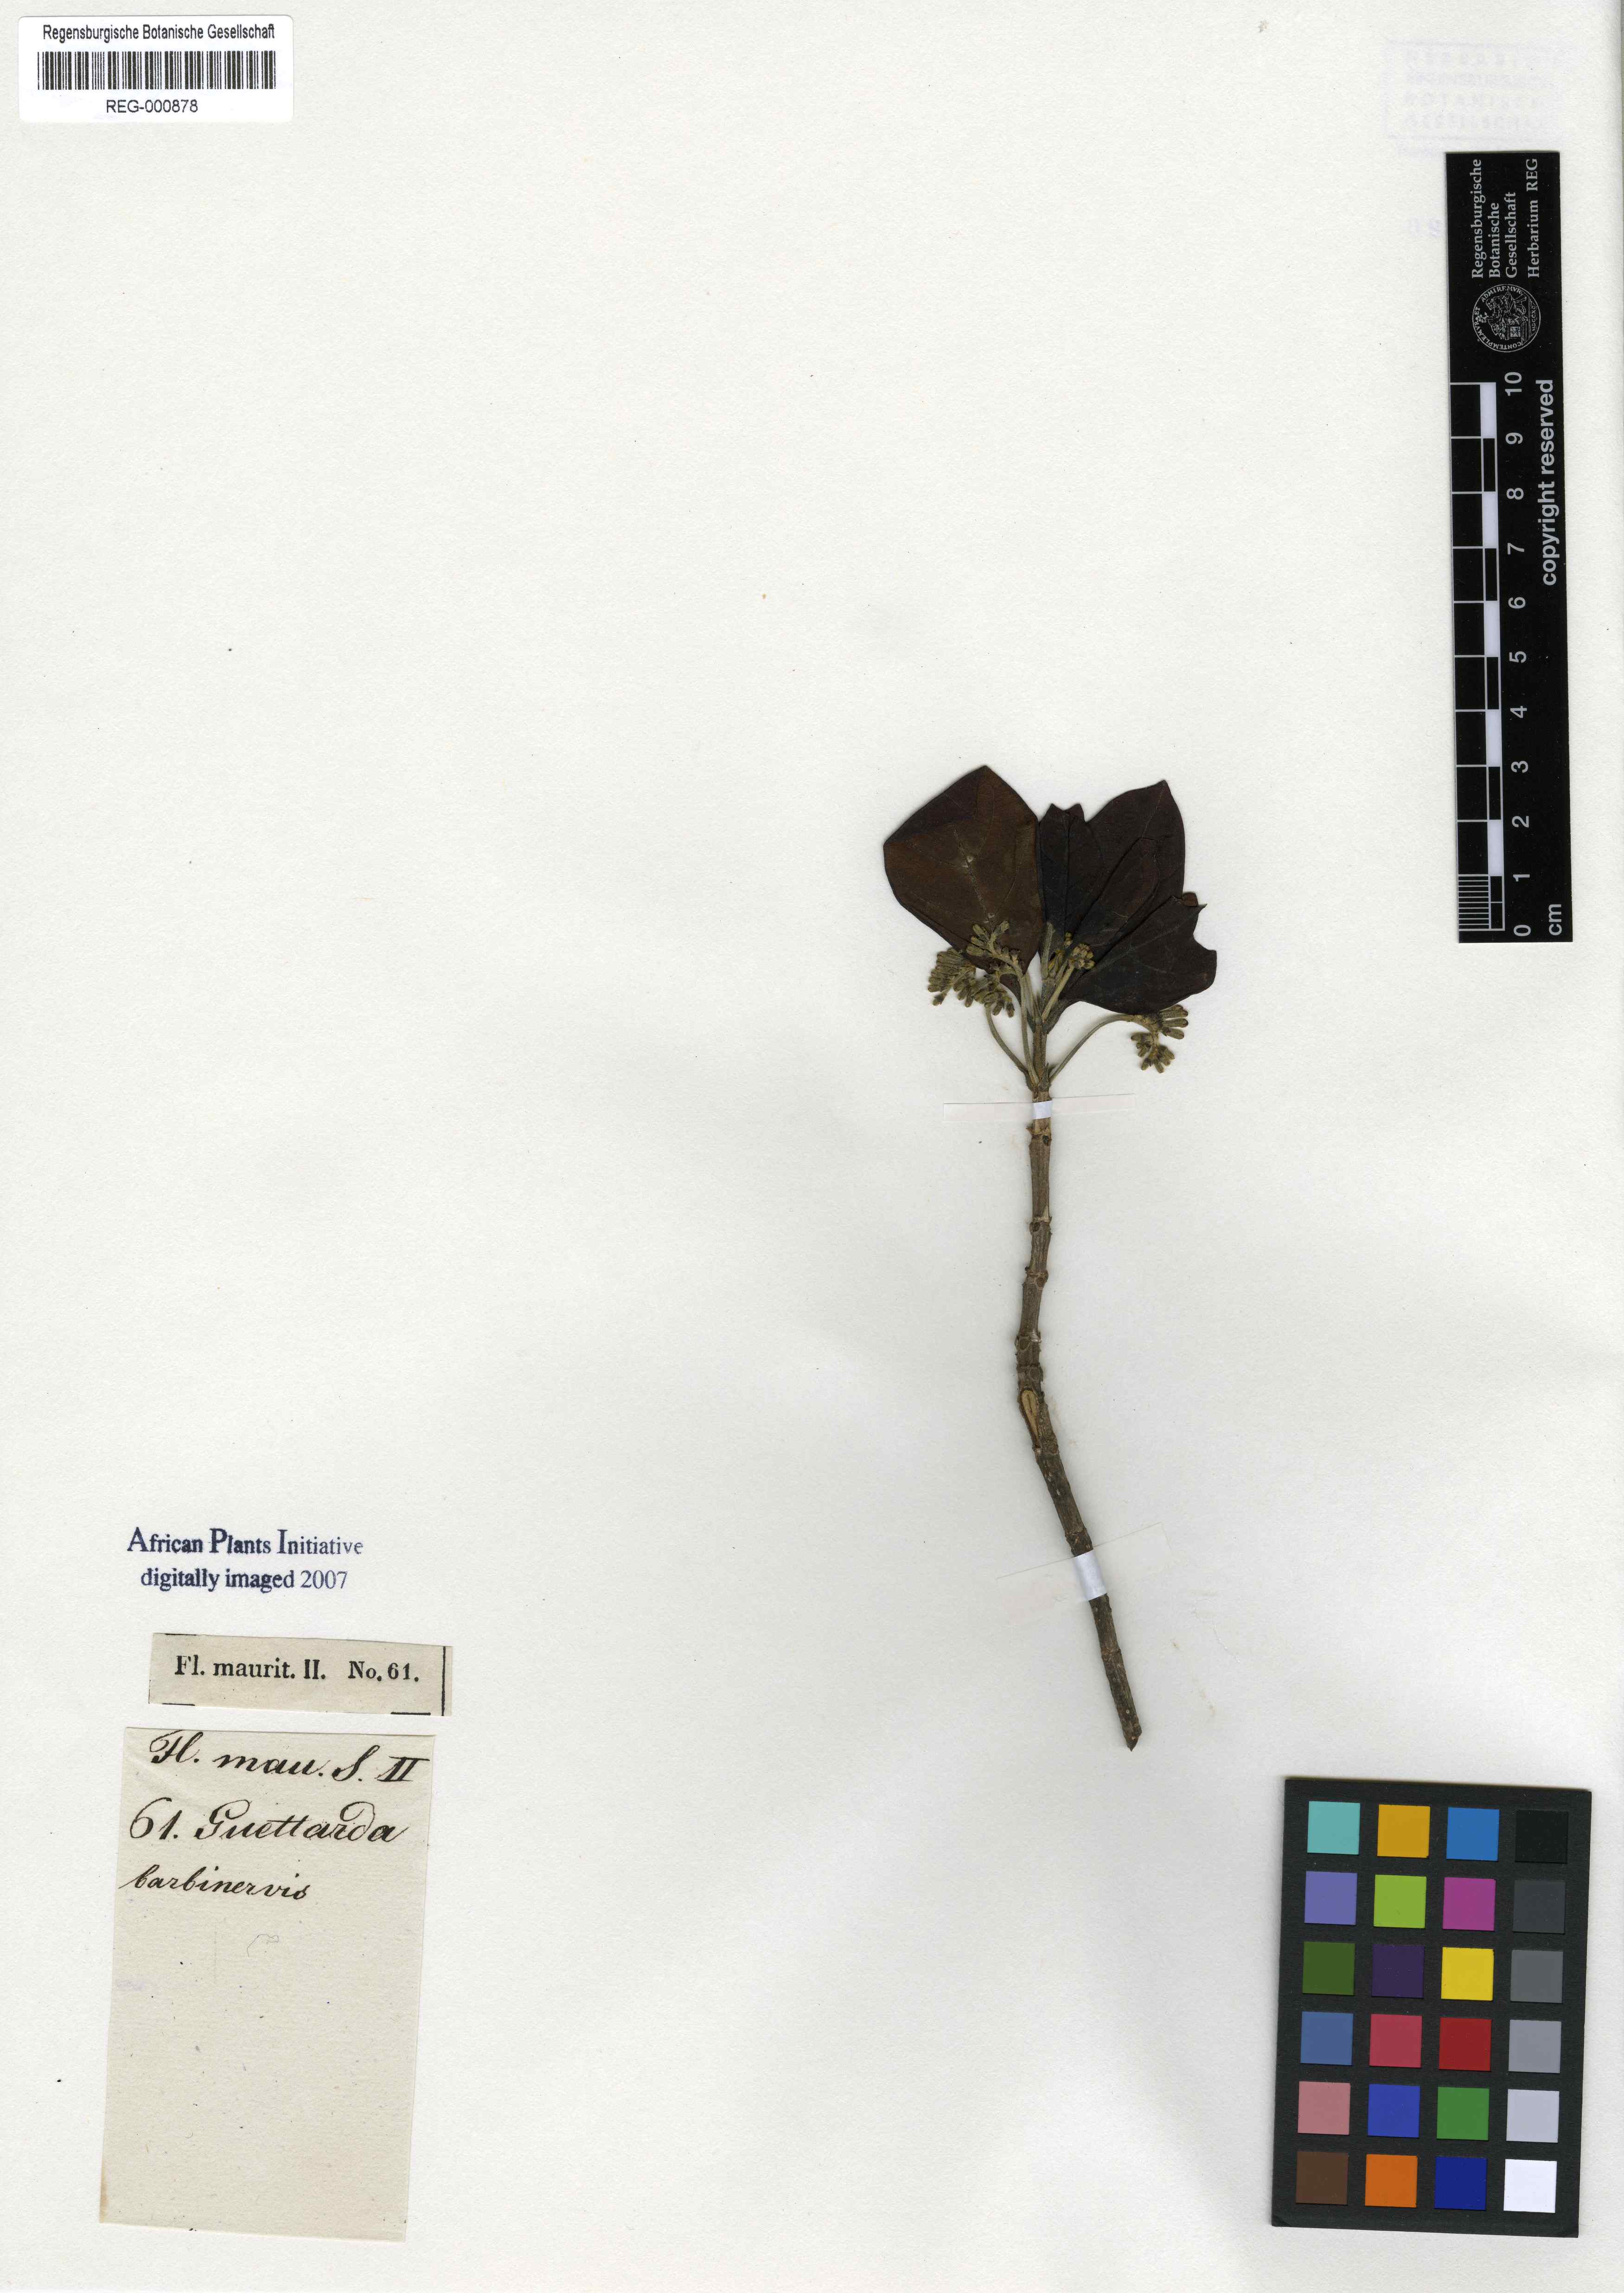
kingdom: Plantae
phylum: Tracheophyta
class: Magnoliopsida
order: Gentianales
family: Rubiaceae
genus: Antirhea
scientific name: Antirhea borbonica
